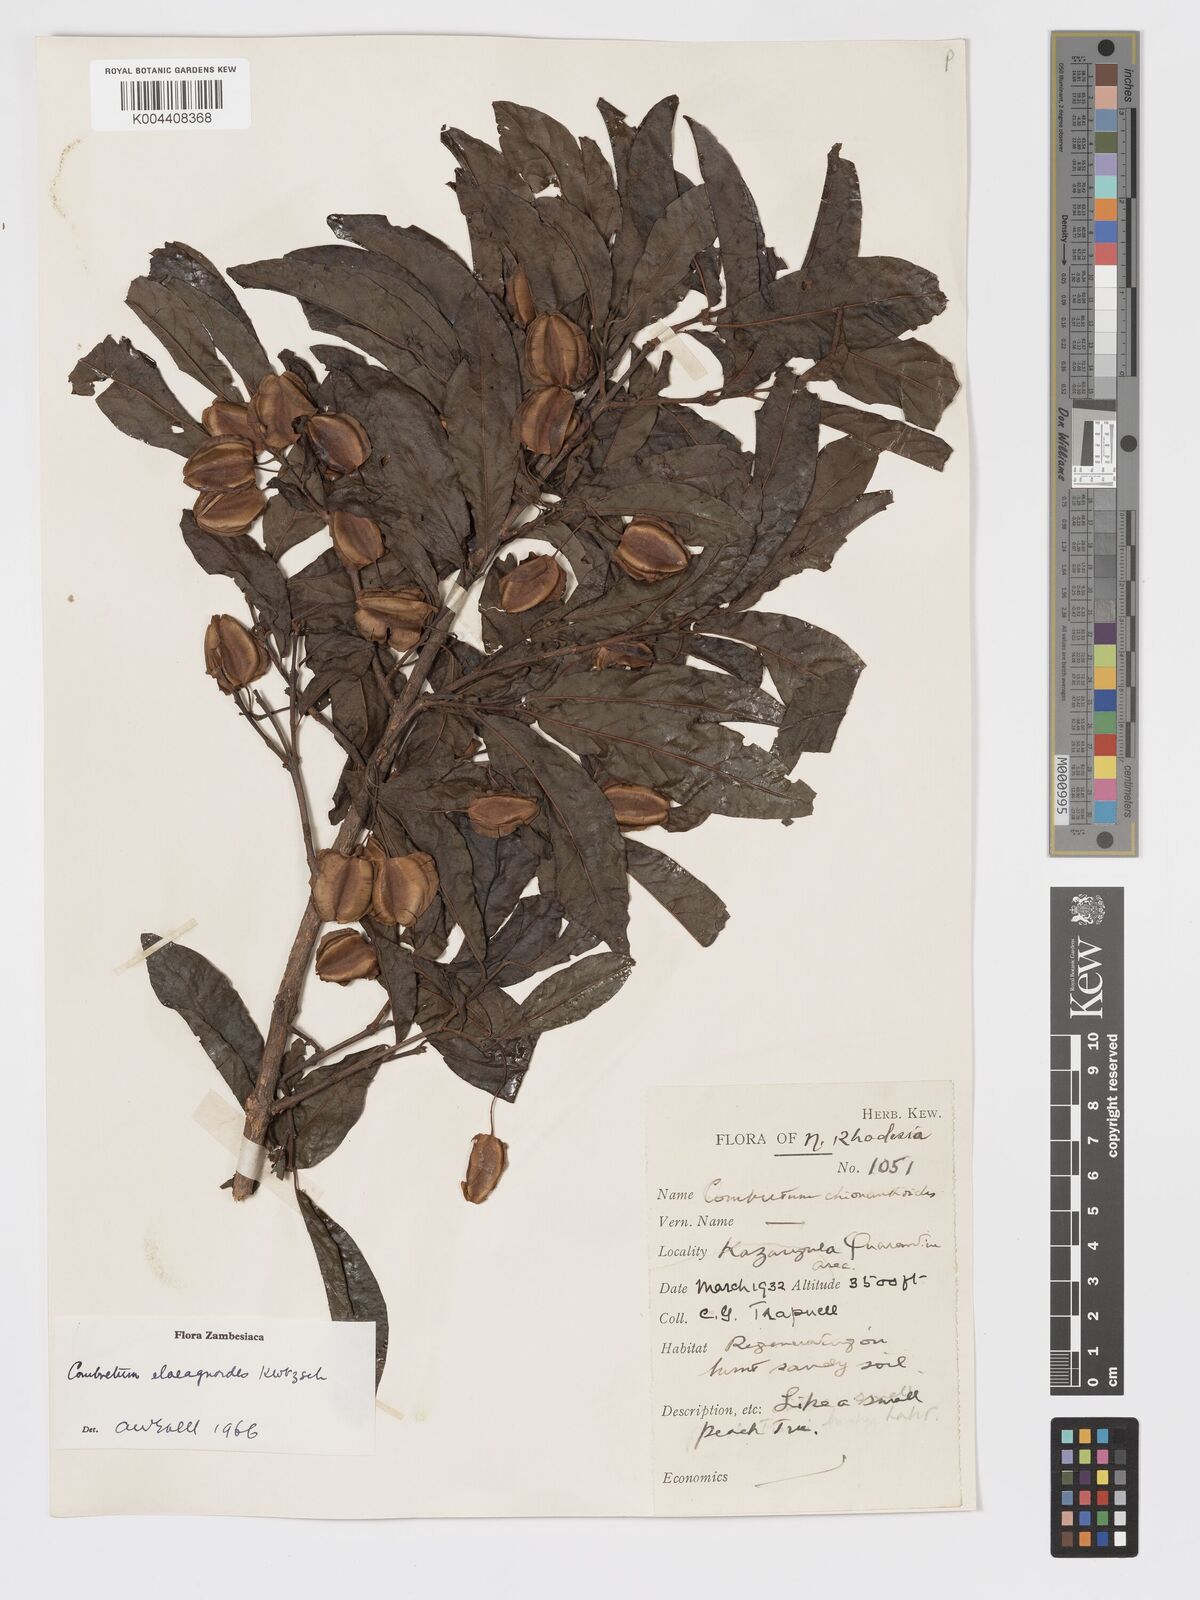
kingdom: Plantae
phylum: Tracheophyta
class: Magnoliopsida
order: Myrtales
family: Combretaceae
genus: Combretum
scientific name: Combretum elaeagnoides
